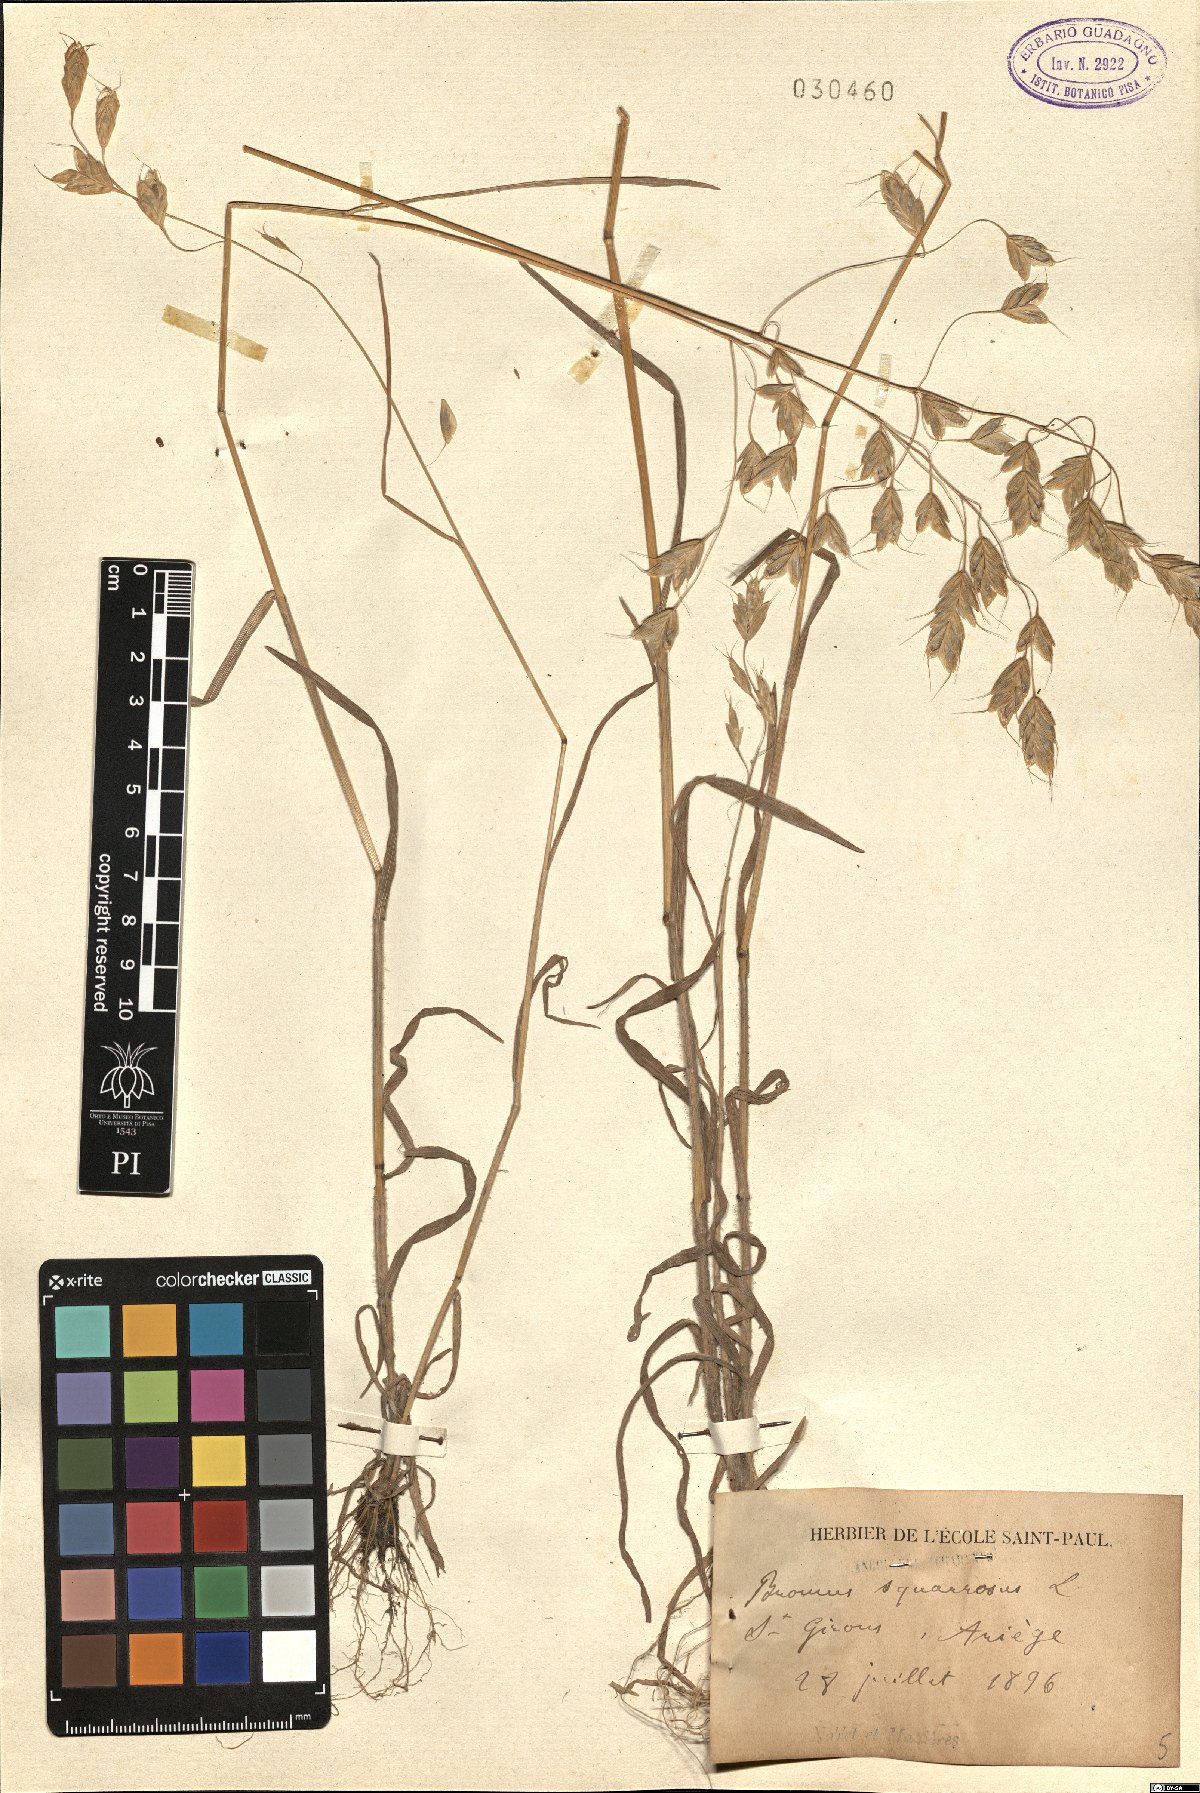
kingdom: Plantae
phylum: Tracheophyta
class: Liliopsida
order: Poales
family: Poaceae
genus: Bromus
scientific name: Bromus squarrosus
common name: Corn brome
